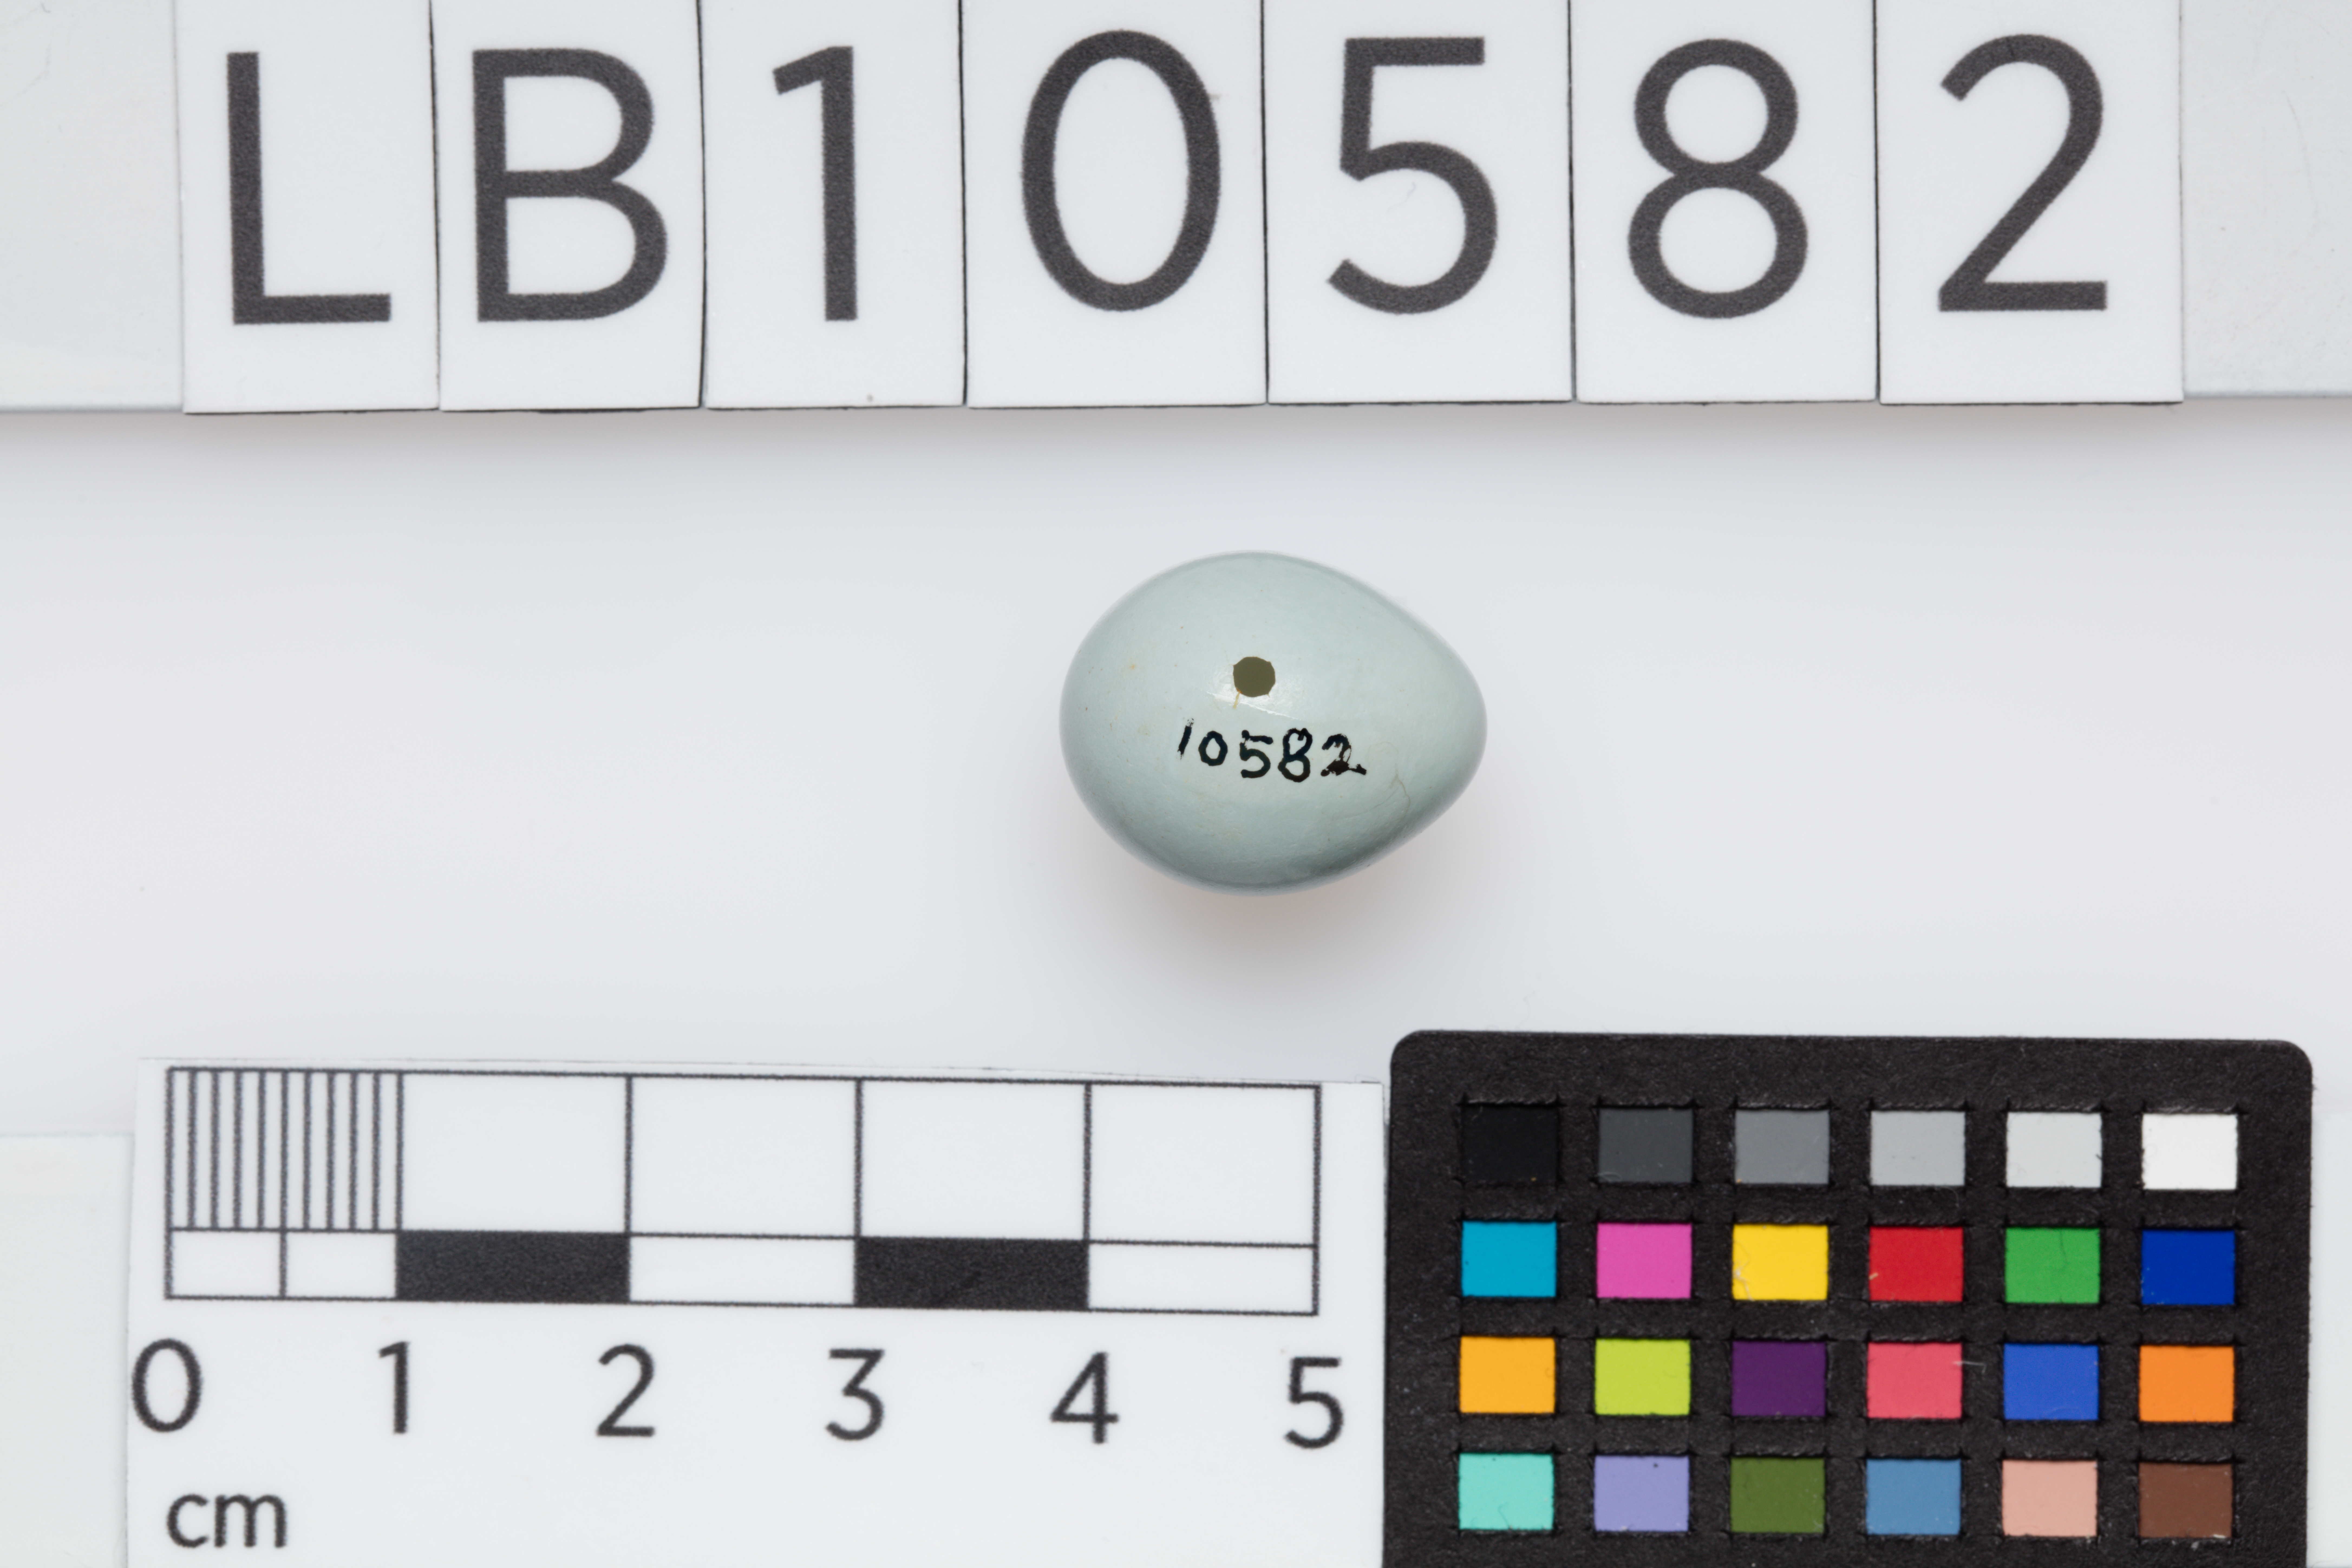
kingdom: Animalia
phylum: Chordata
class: Aves
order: Passeriformes
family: Muscicapidae
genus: Phoenicurus
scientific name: Phoenicurus phoenicurus
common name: Common redstart
